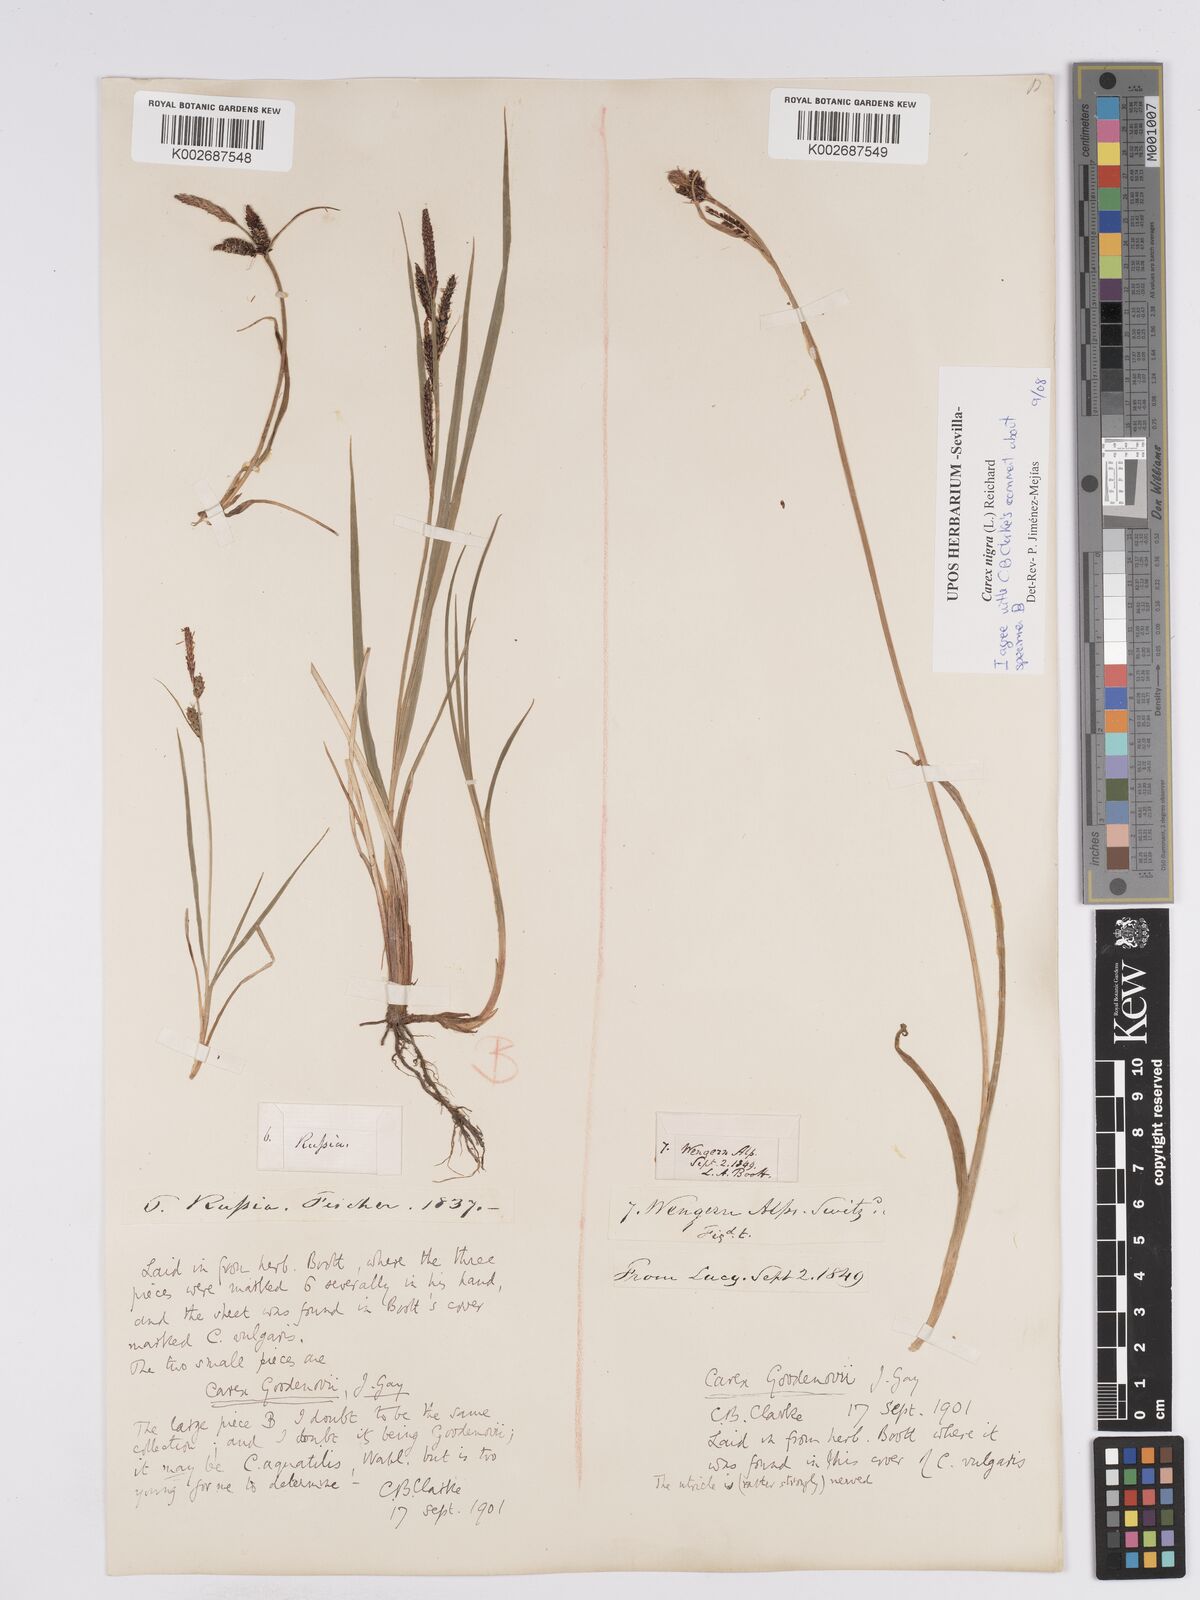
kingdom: Plantae
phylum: Tracheophyta
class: Liliopsida
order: Poales
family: Cyperaceae
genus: Carex
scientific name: Carex nigra
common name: Common sedge
